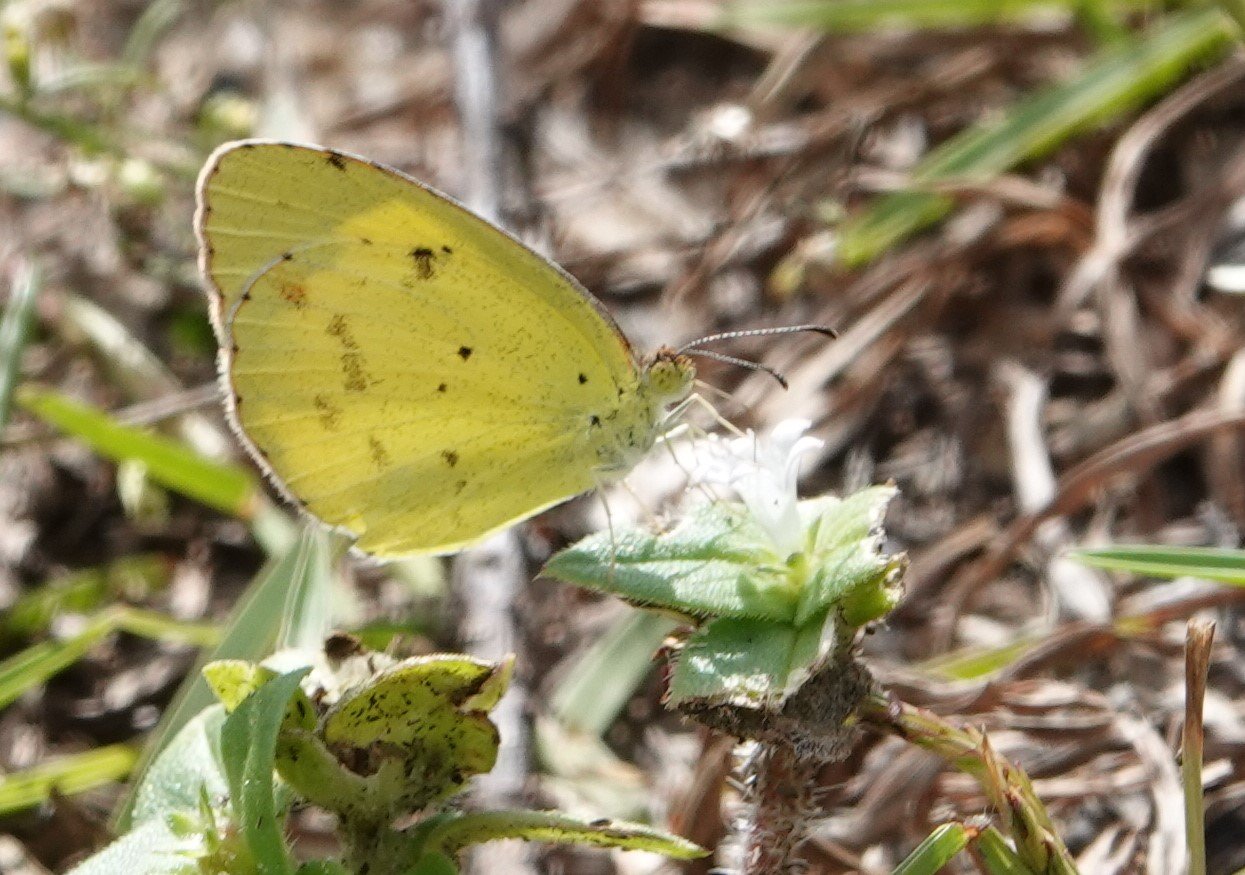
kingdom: Animalia
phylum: Arthropoda
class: Insecta
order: Lepidoptera
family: Pieridae
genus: Pyrisitia
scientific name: Pyrisitia lisa
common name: Little Yellow
